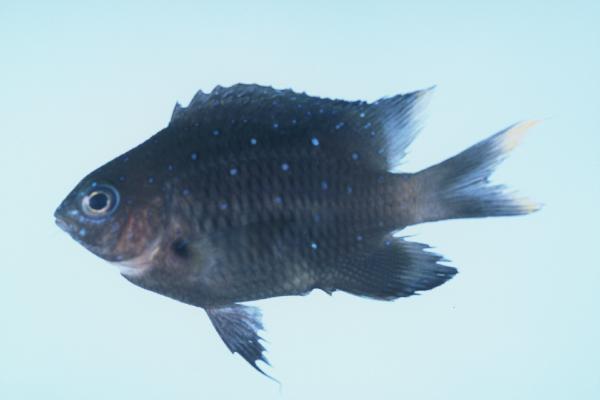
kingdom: Animalia
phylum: Chordata
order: Perciformes
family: Pomacentridae
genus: Stegastes
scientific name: Stegastes pelicieri
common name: Mauritian gregory
